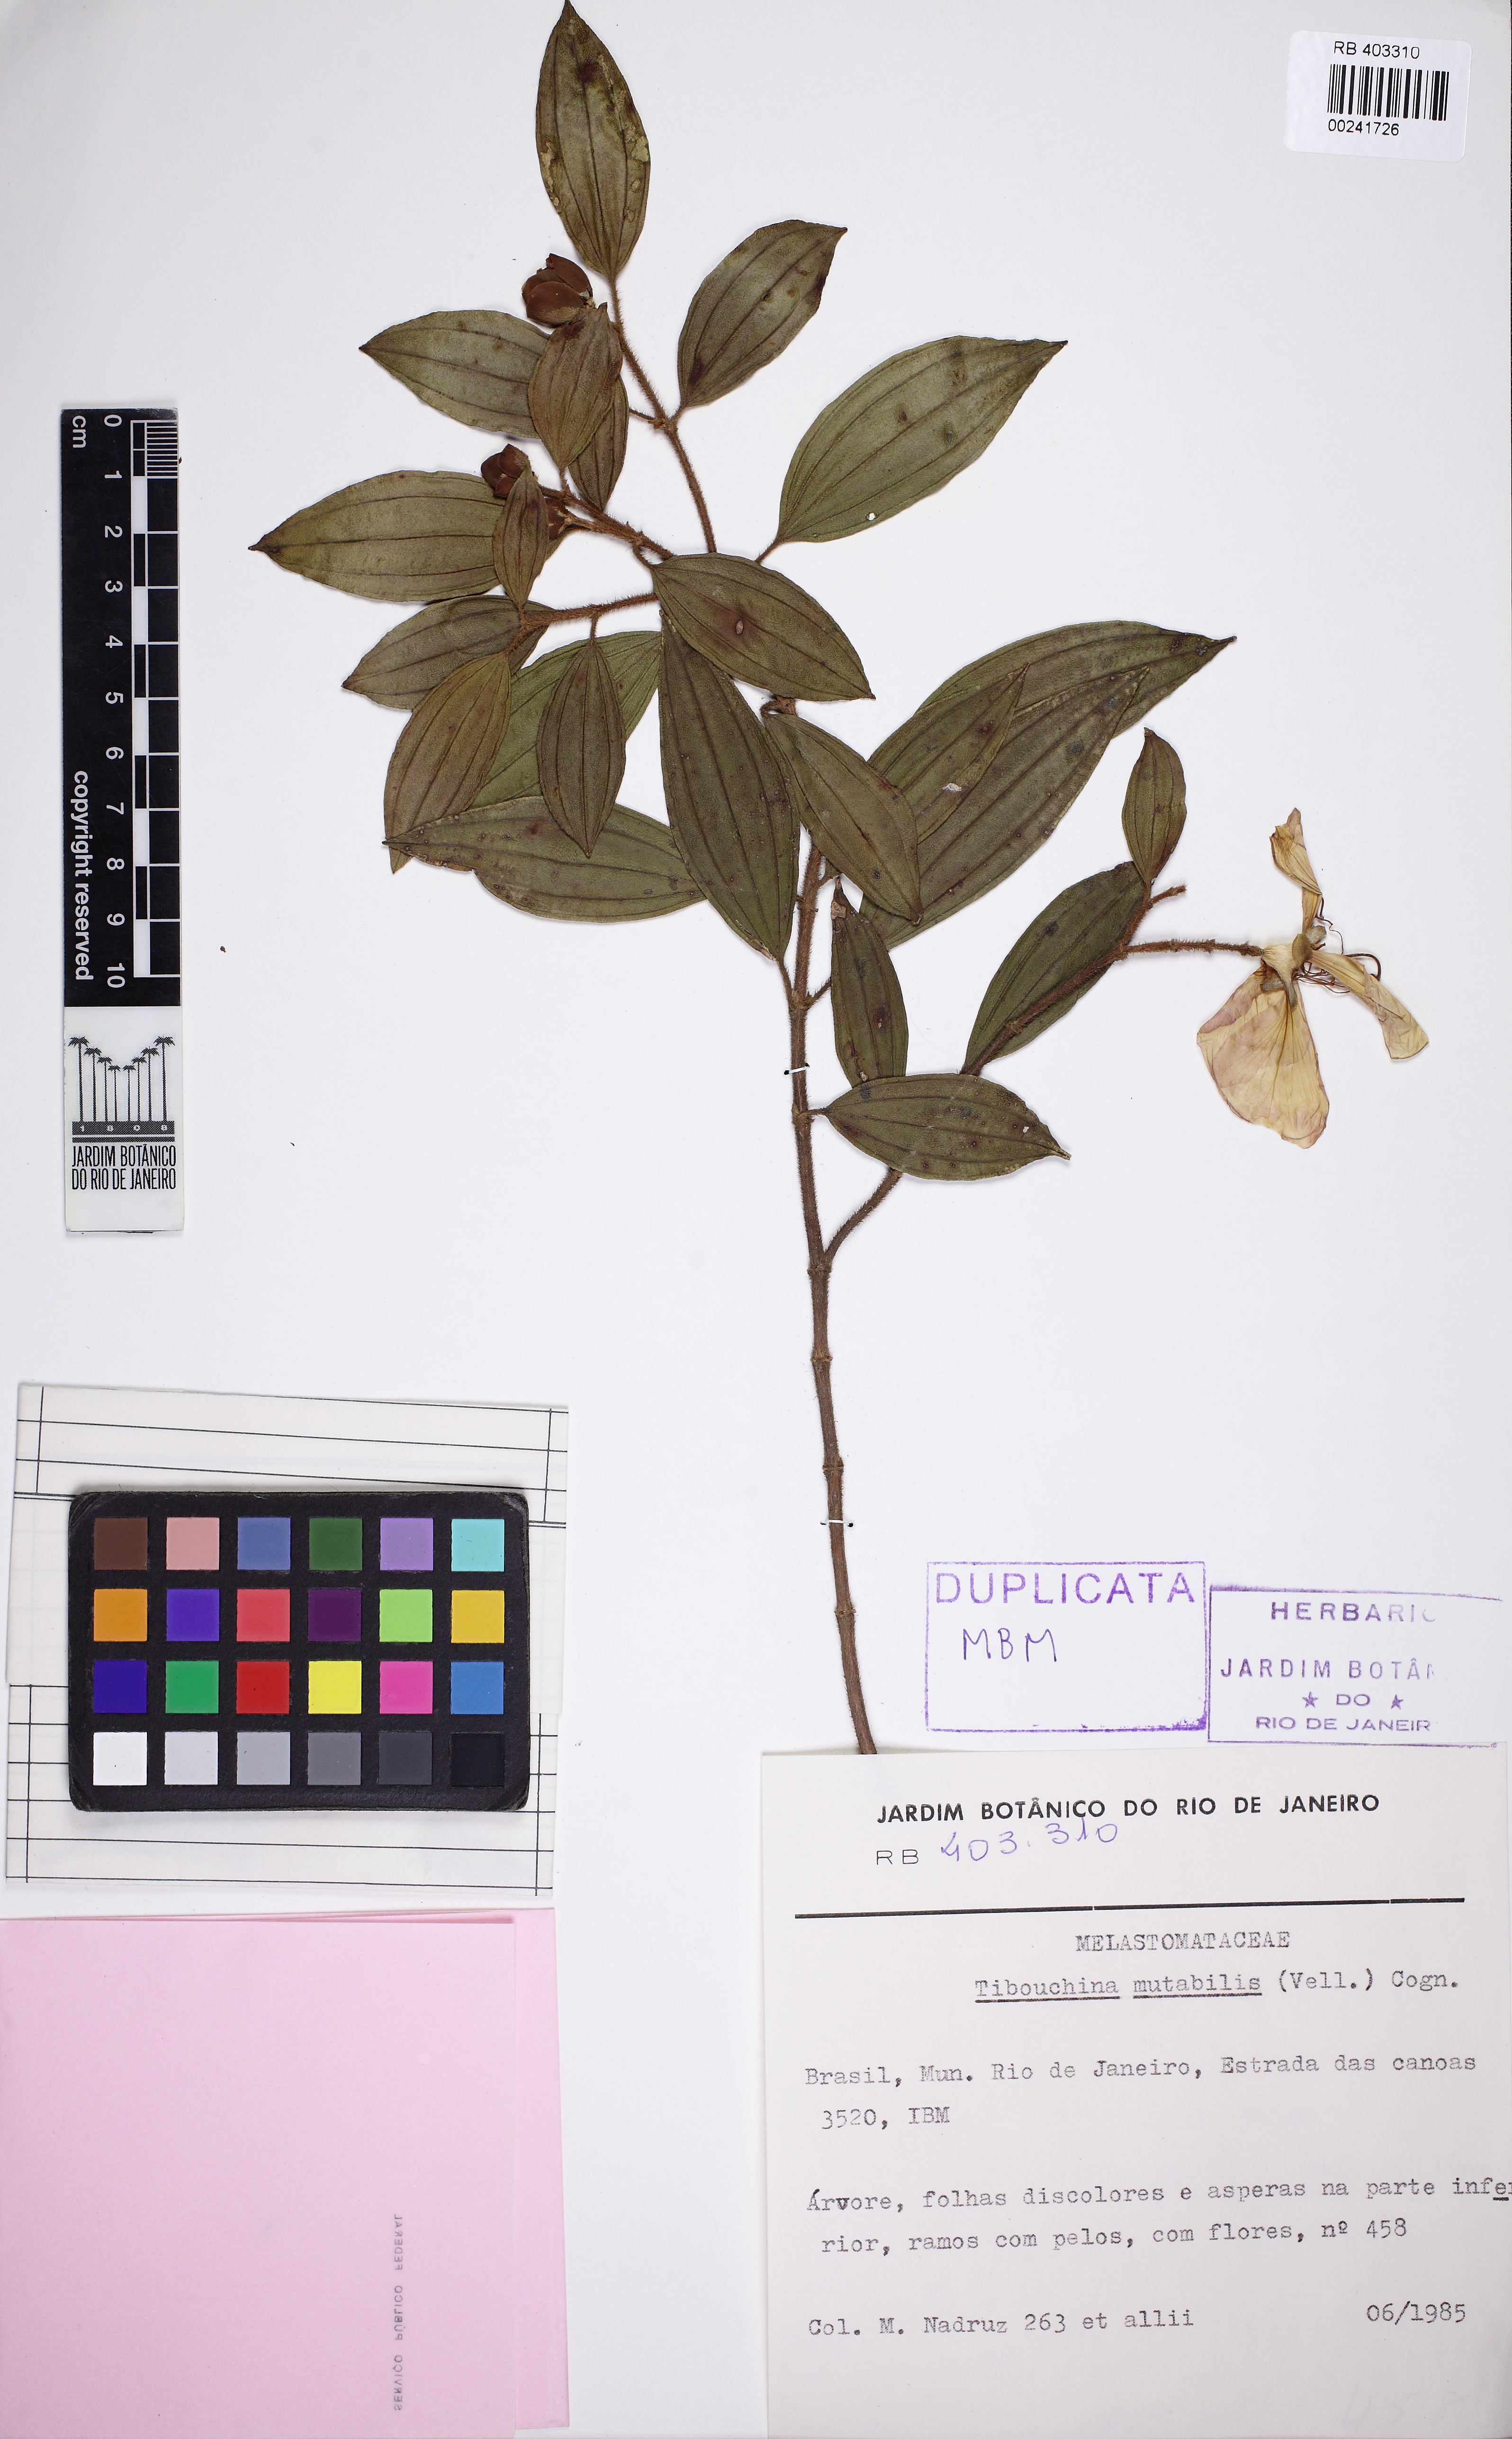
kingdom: Plantae
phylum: Tracheophyta
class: Magnoliopsida
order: Myrtales
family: Melastomataceae
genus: Pleroma
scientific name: Pleroma mutabile
